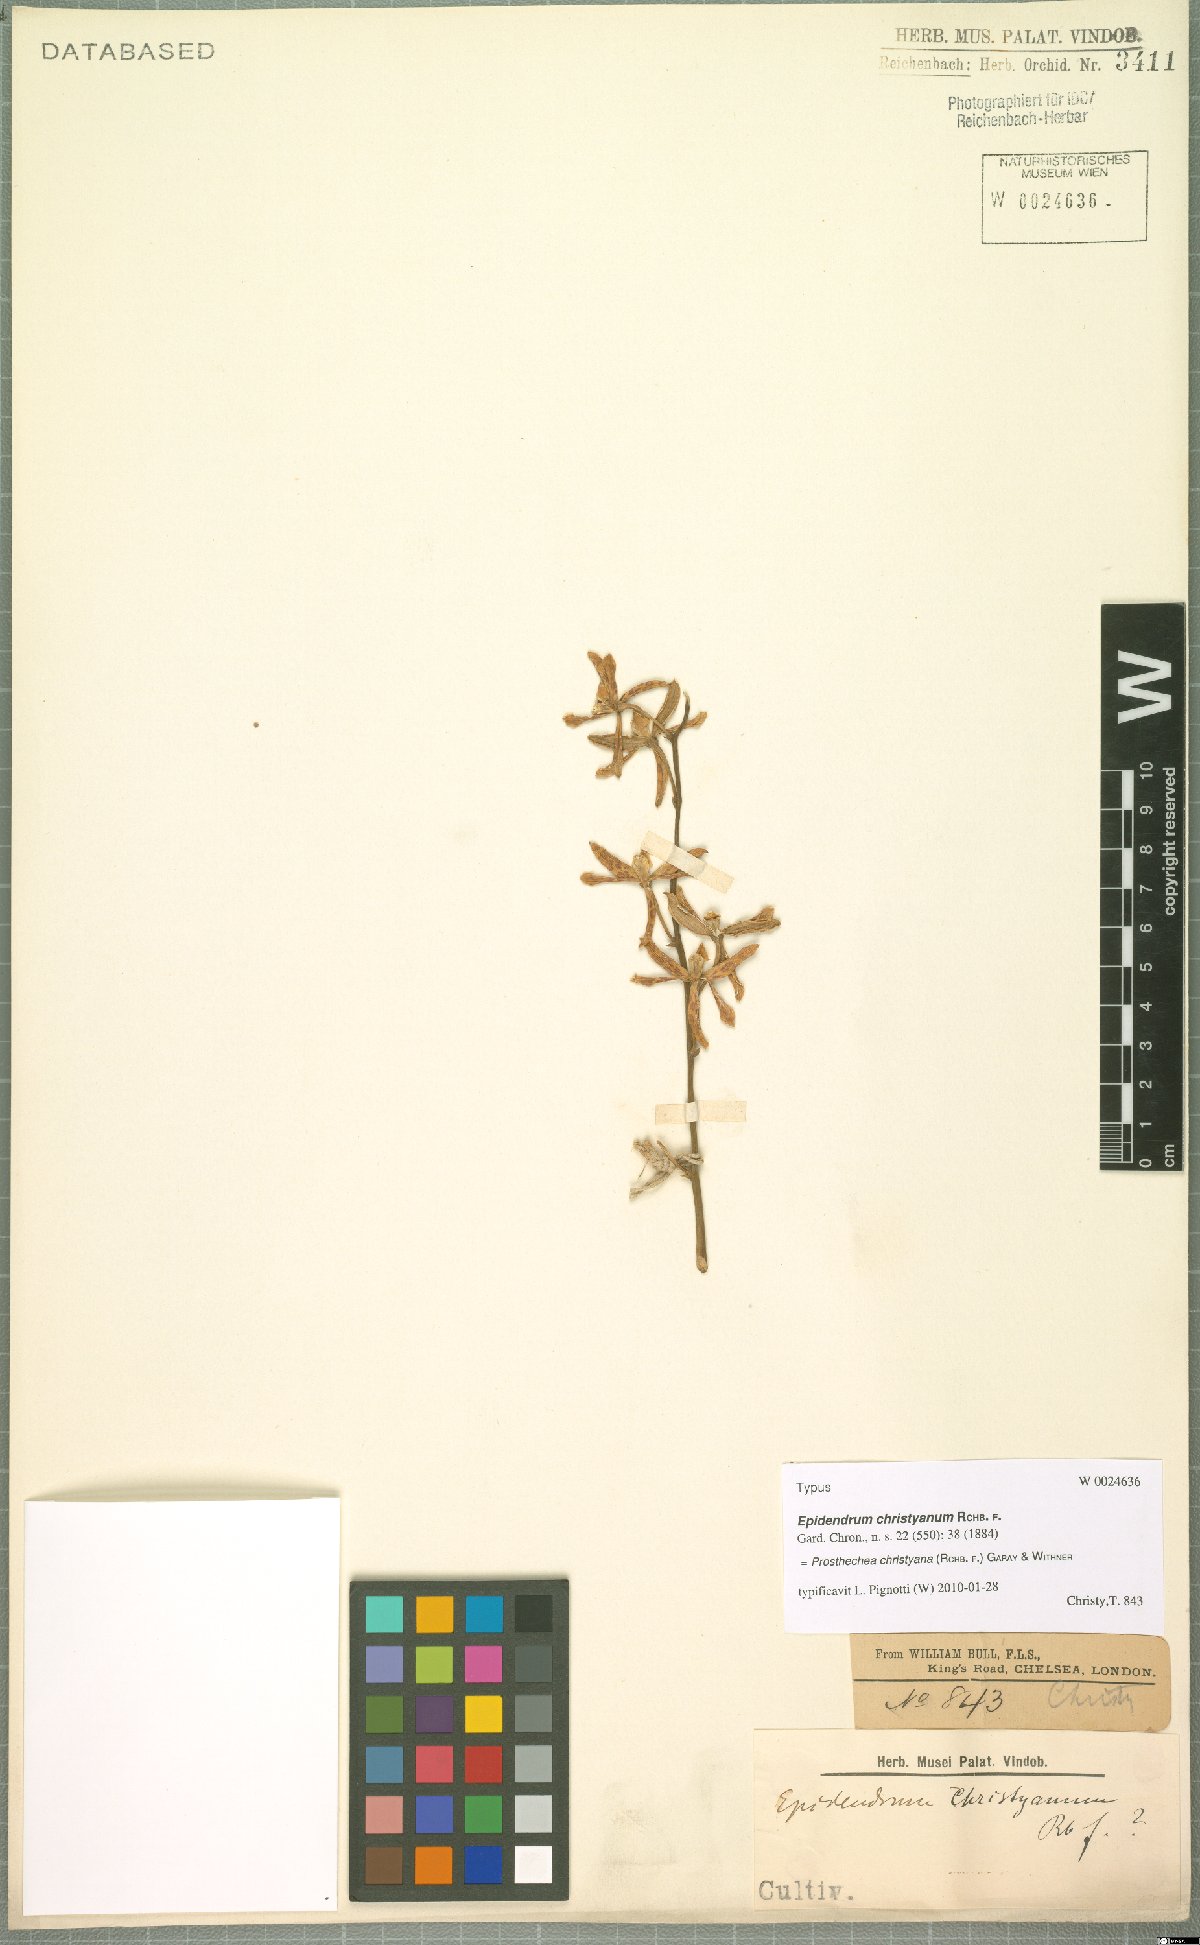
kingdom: Plantae
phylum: Tracheophyta
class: Liliopsida
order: Asparagales
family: Orchidaceae
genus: Prosthechea
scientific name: Prosthechea christyana
